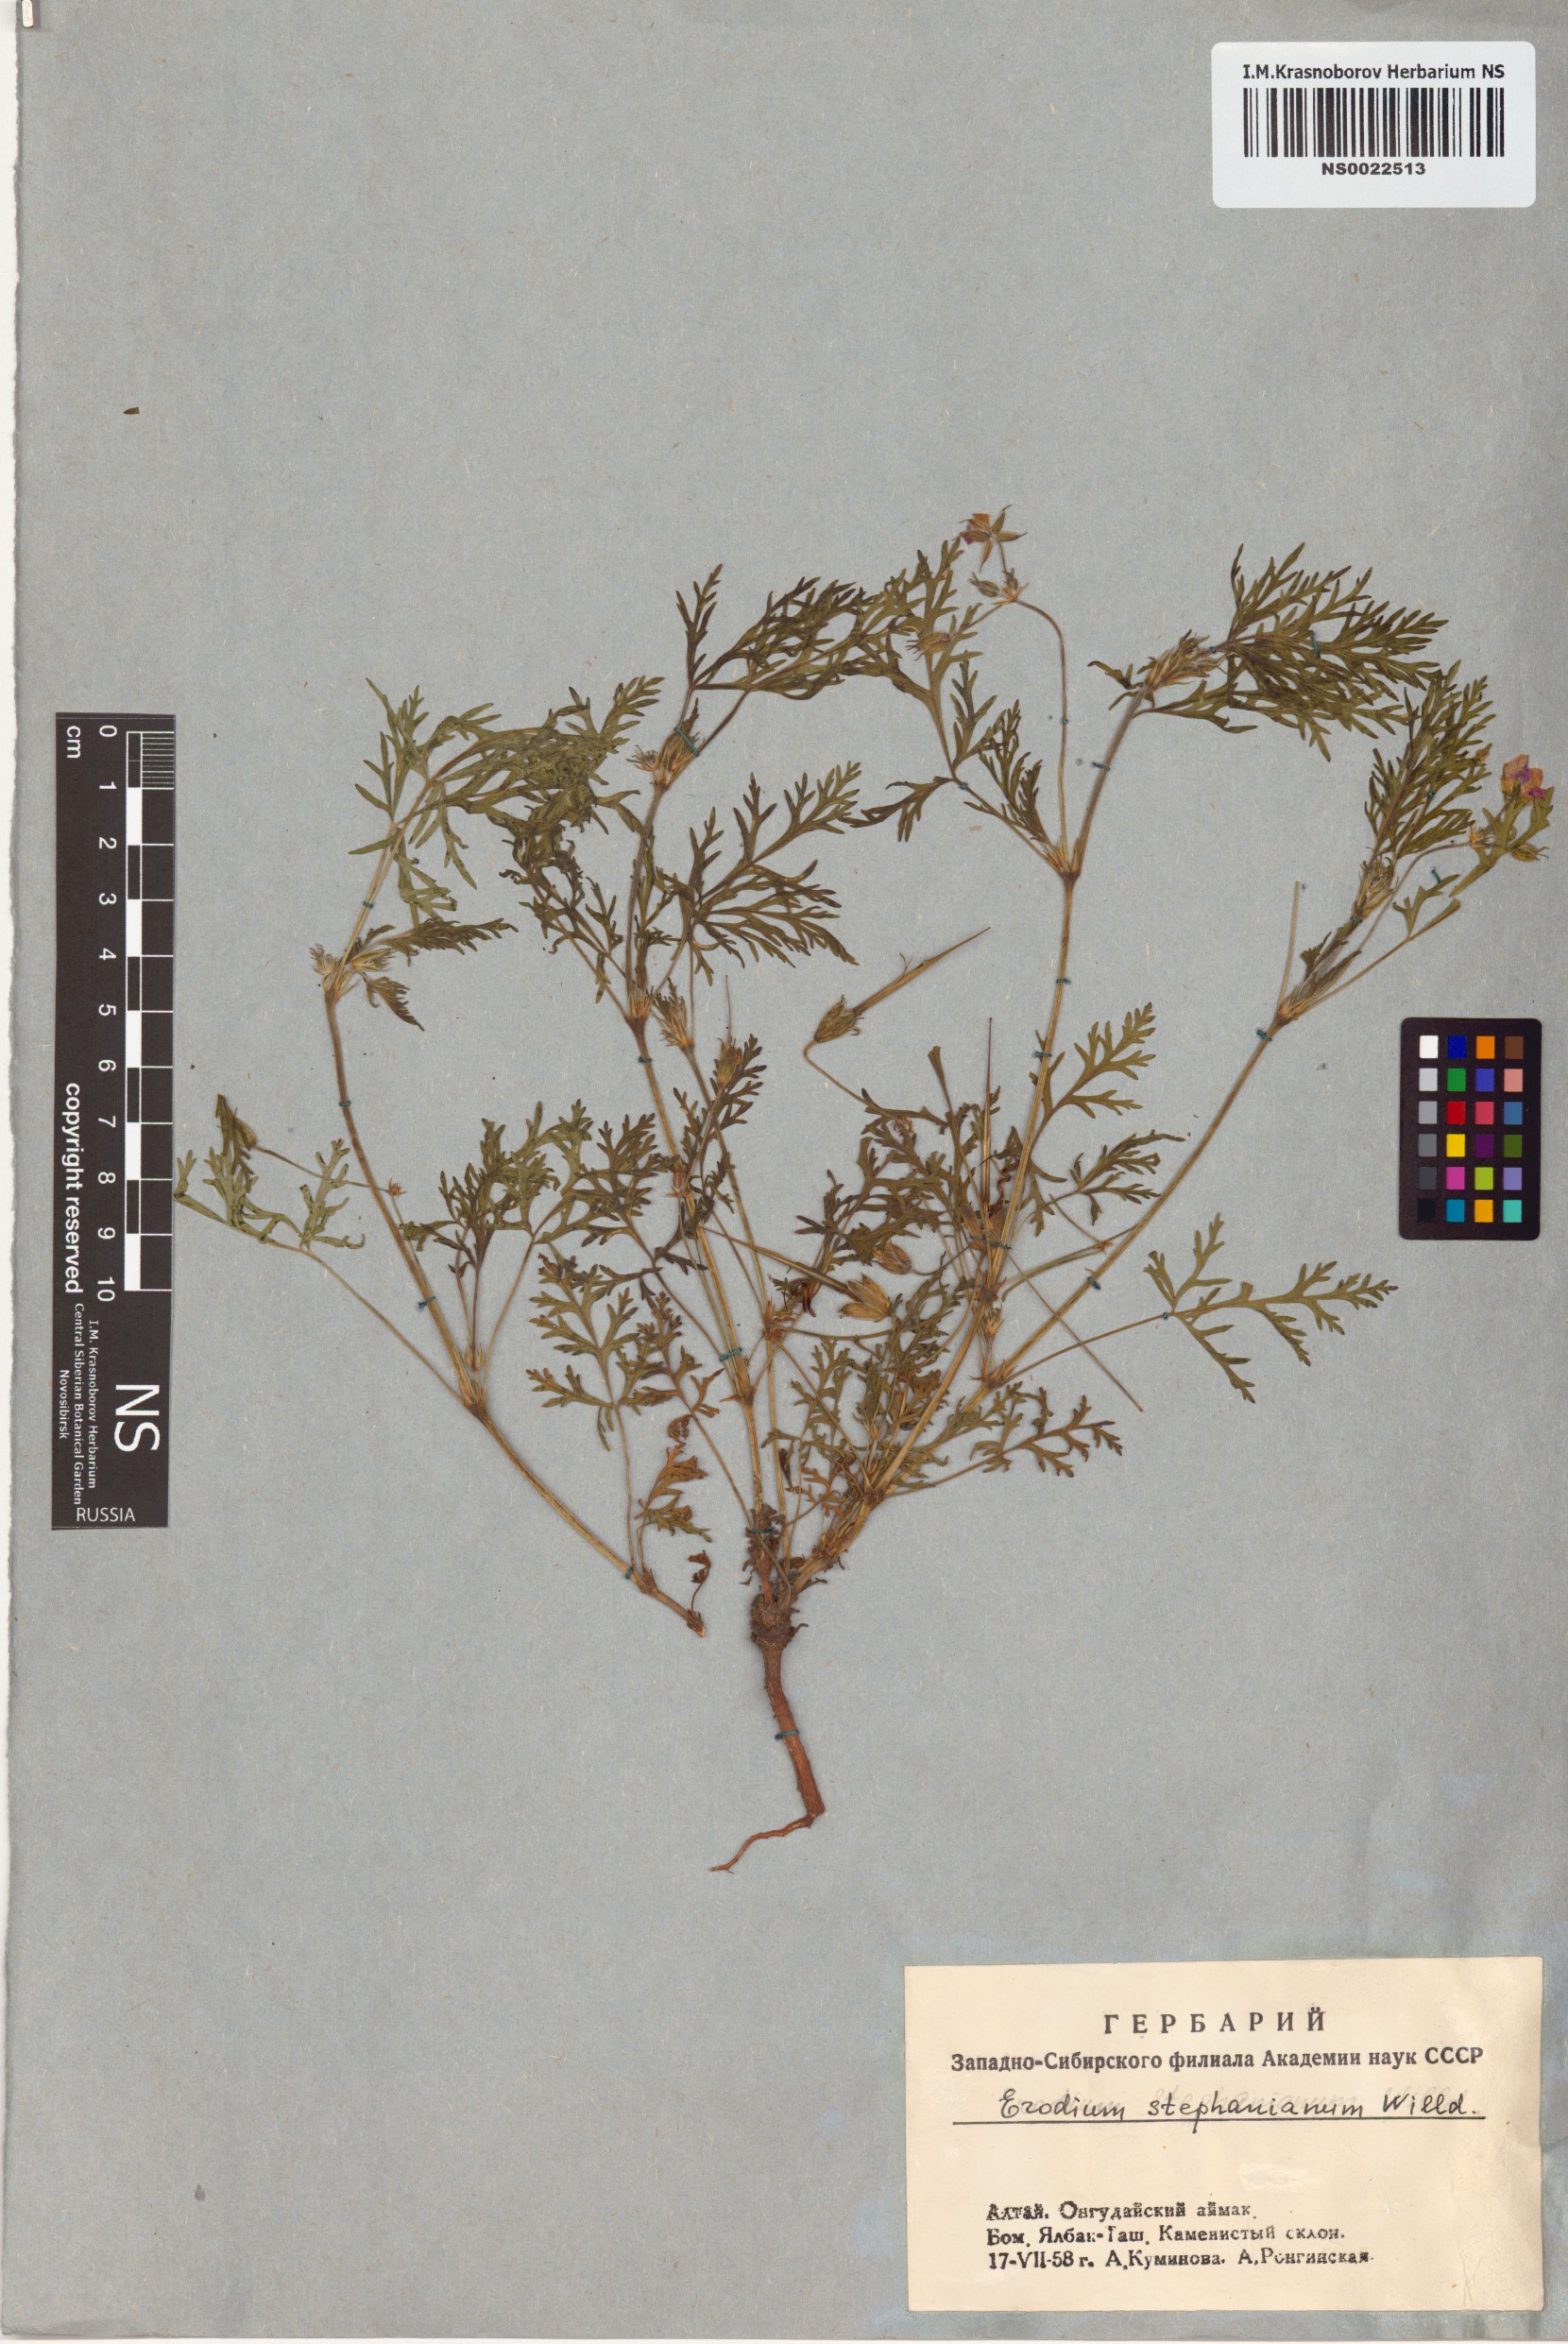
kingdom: Plantae
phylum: Tracheophyta
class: Magnoliopsida
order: Geraniales
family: Geraniaceae
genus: Erodium
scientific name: Erodium stephanianum
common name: Stephen's stork's bill
